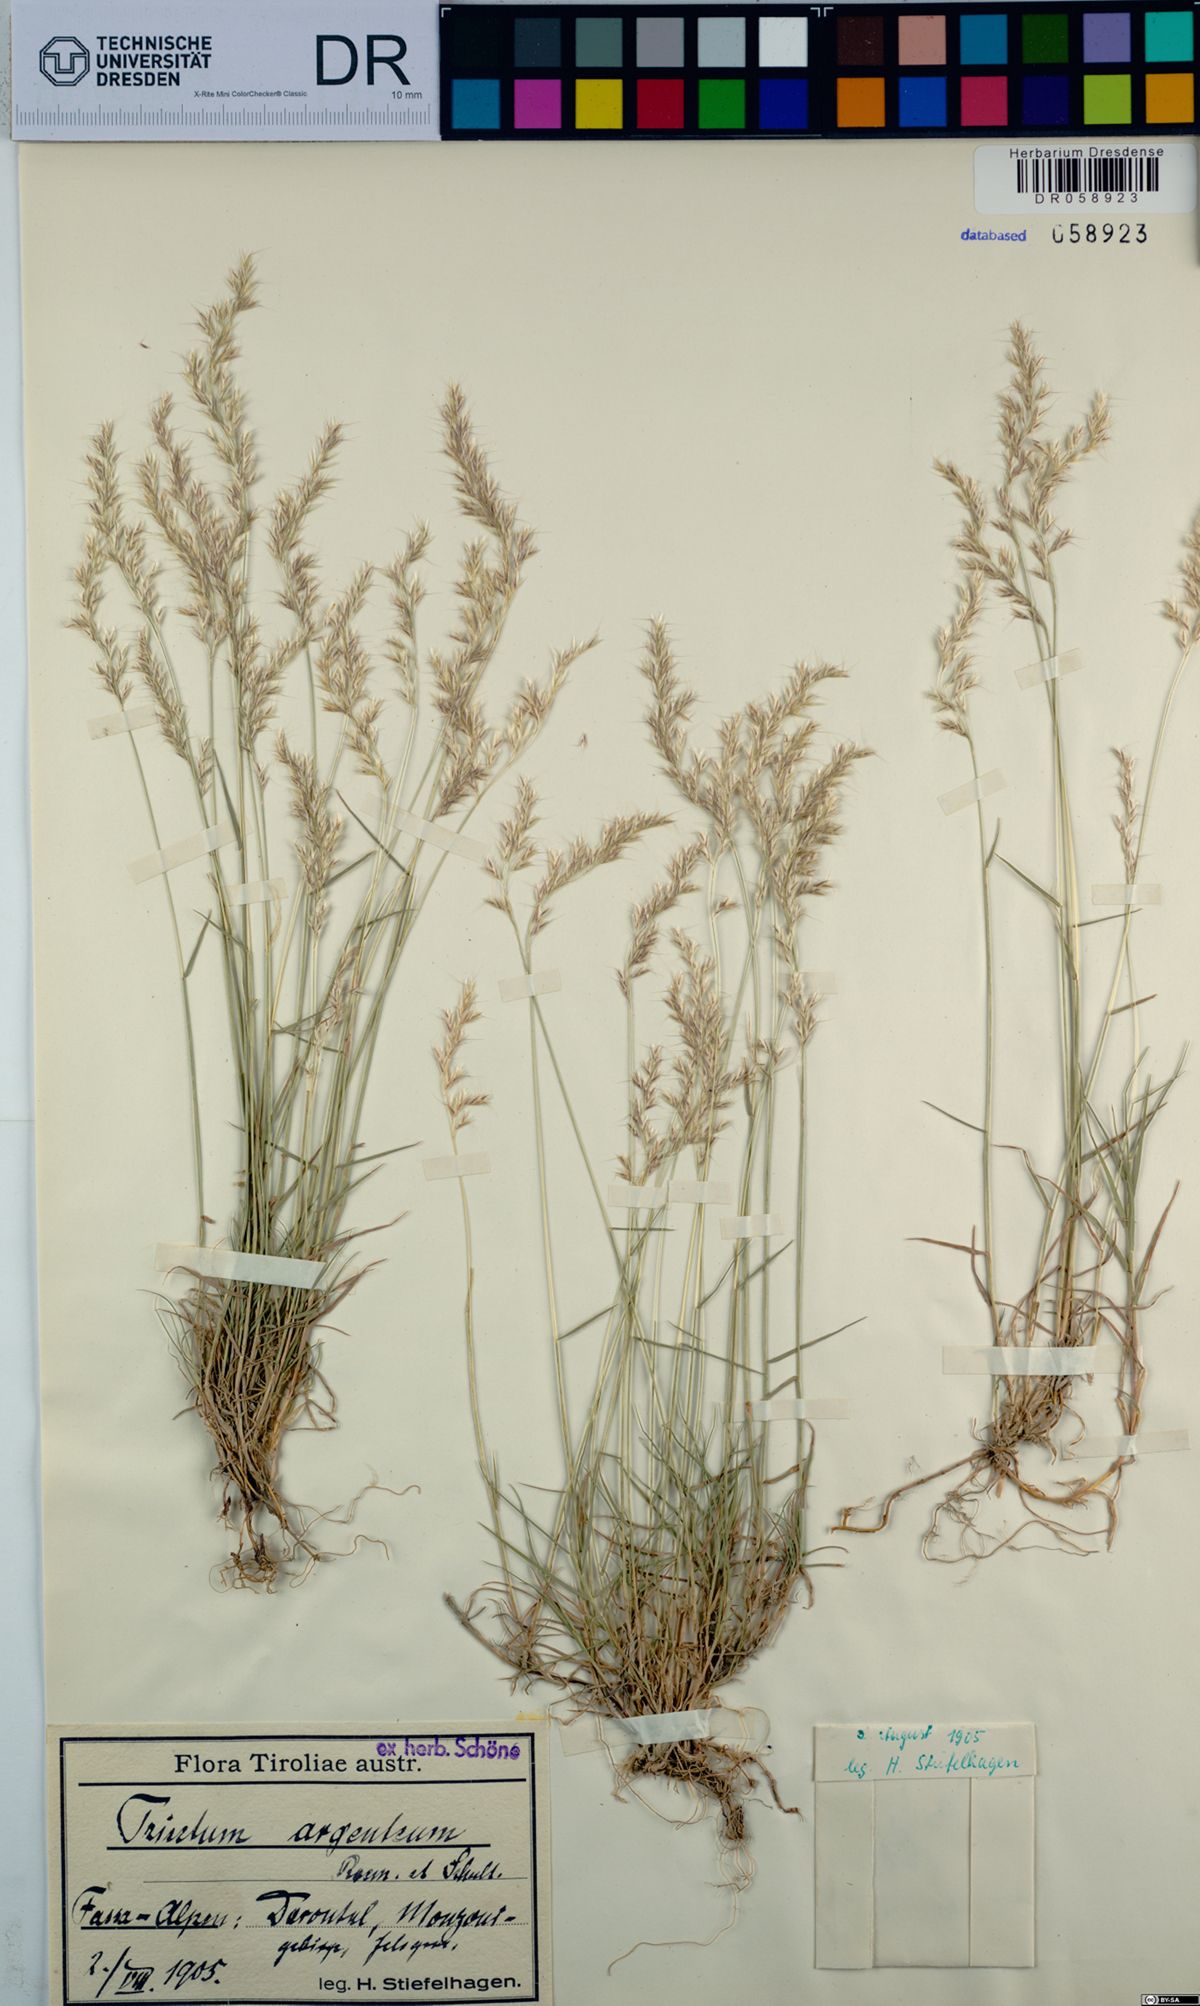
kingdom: Plantae
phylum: Tracheophyta
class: Liliopsida
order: Poales
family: Poaceae
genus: Trisetum
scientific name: Trisetum argenteum
